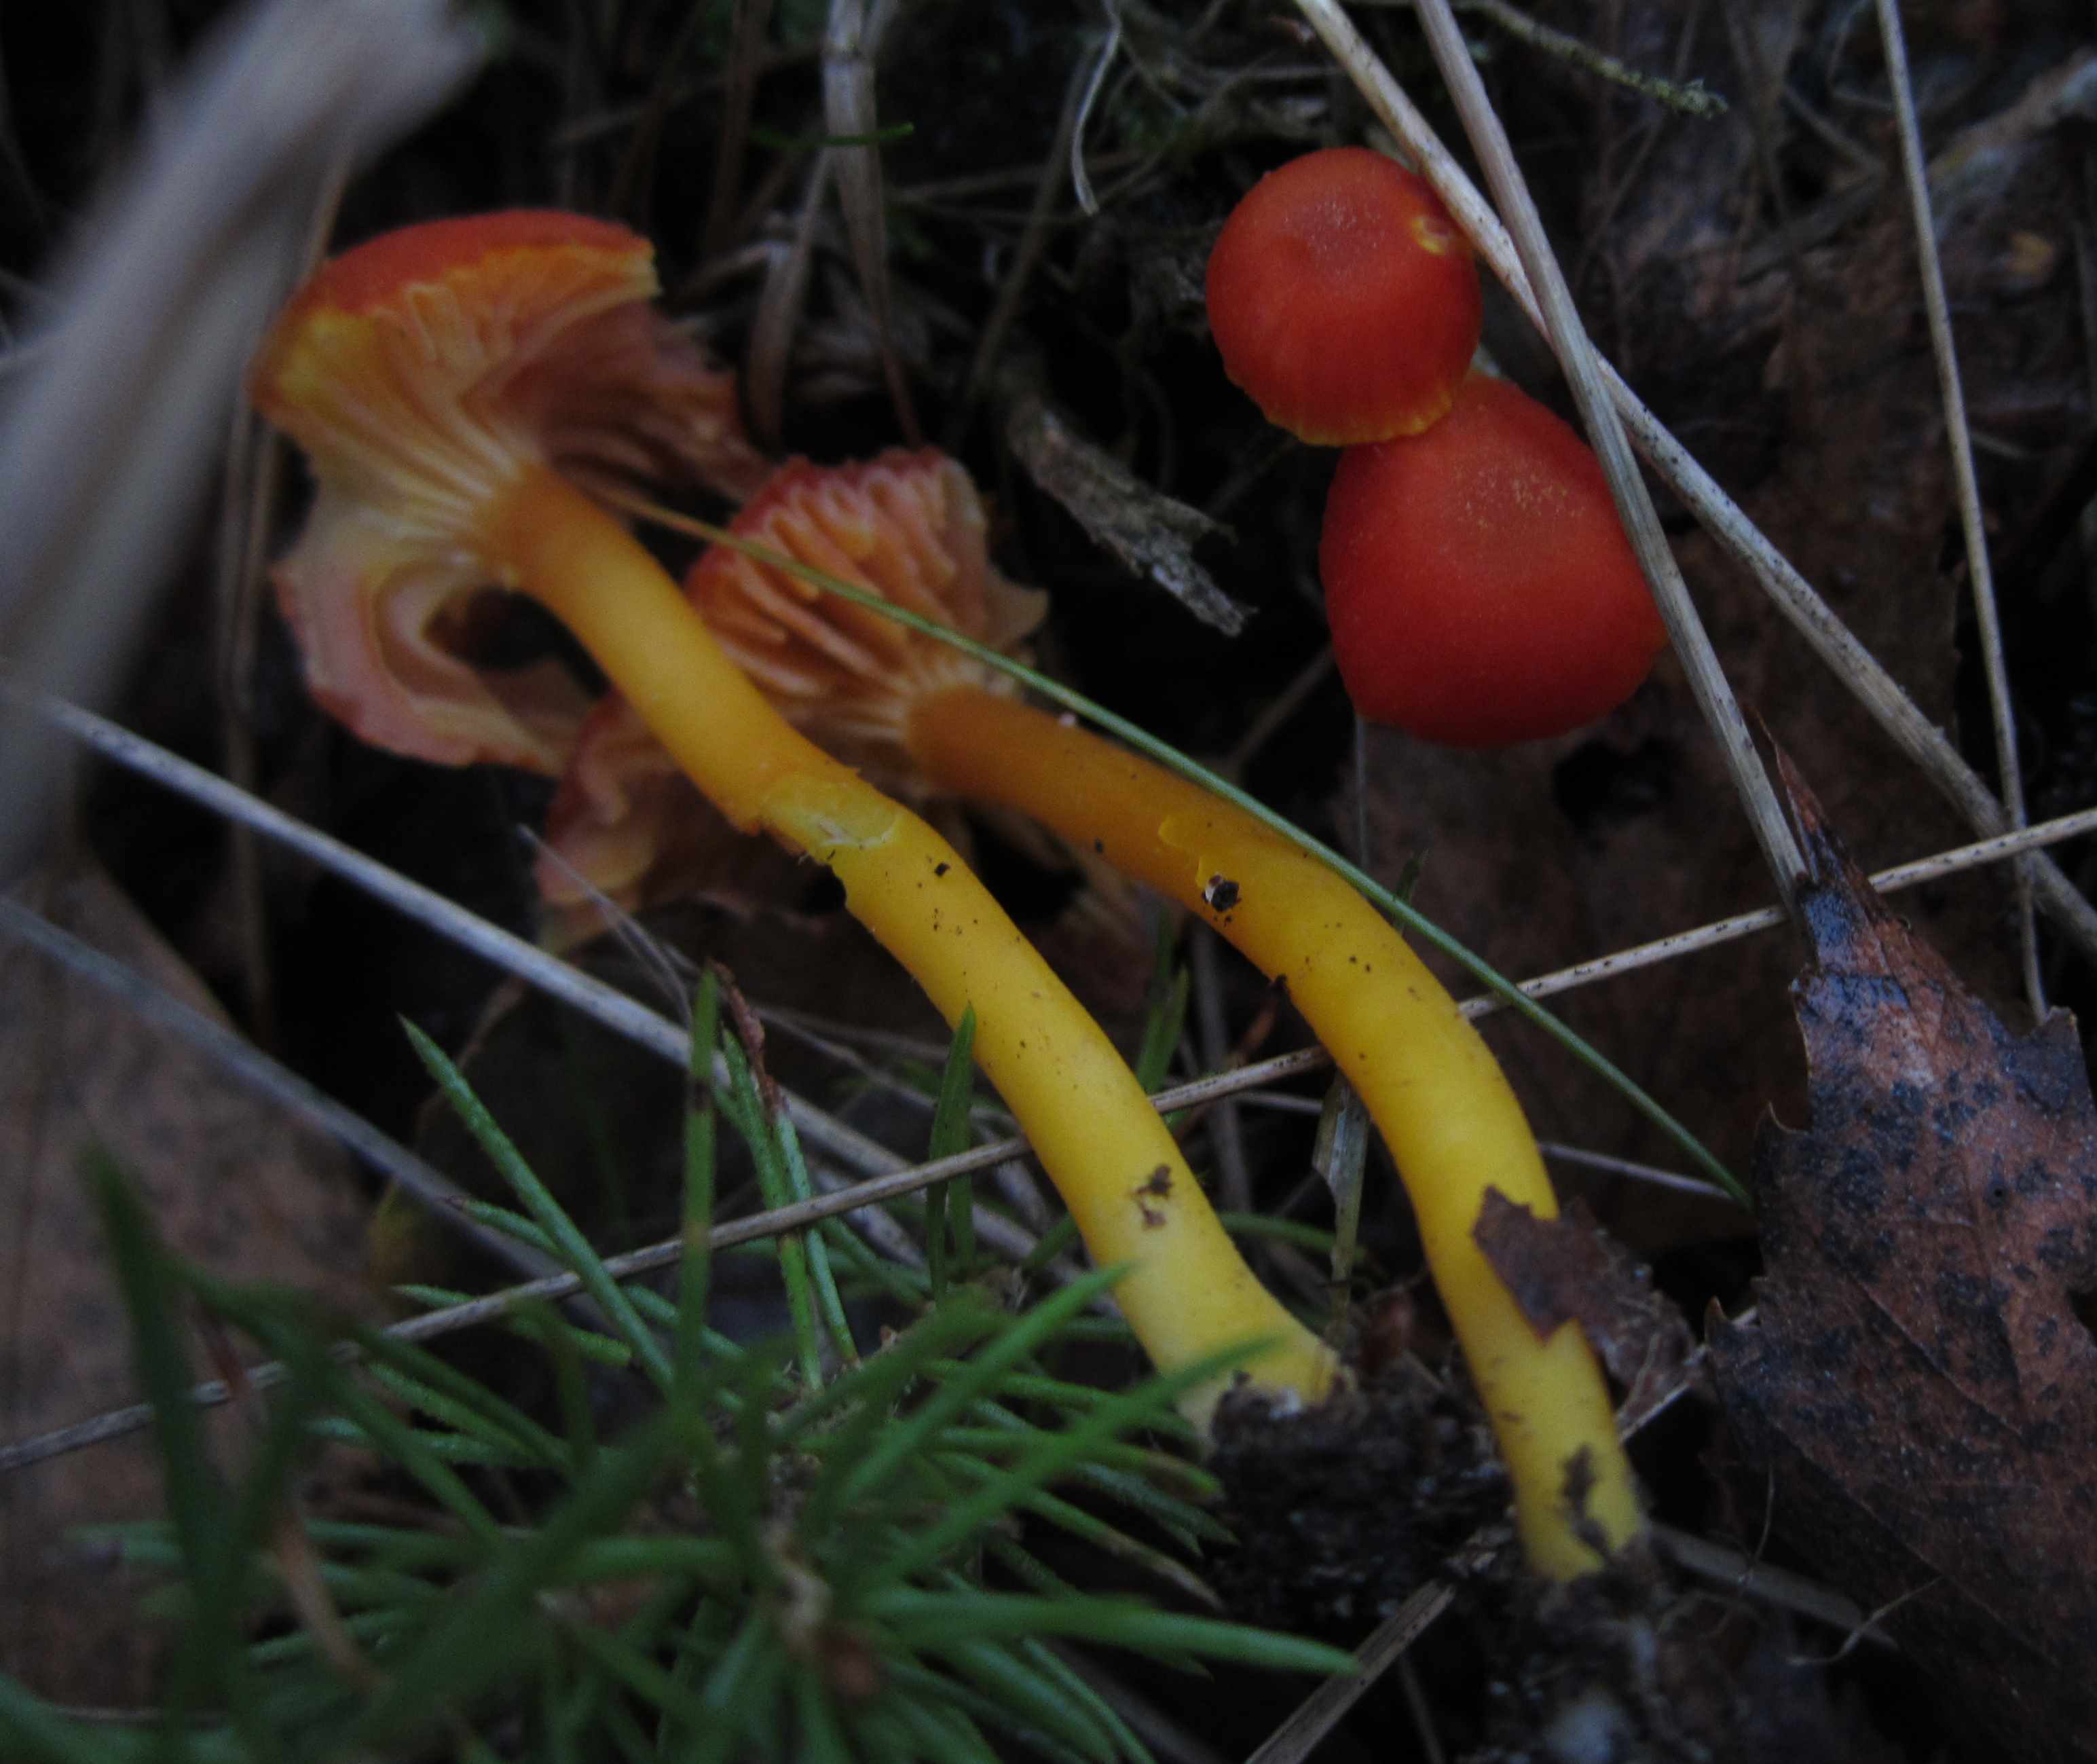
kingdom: Fungi
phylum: Basidiomycota
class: Agaricomycetes
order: Agaricales
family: Hygrophoraceae
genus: Hygrocybe
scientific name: Hygrocybe miniata
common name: mønje-vokshat
